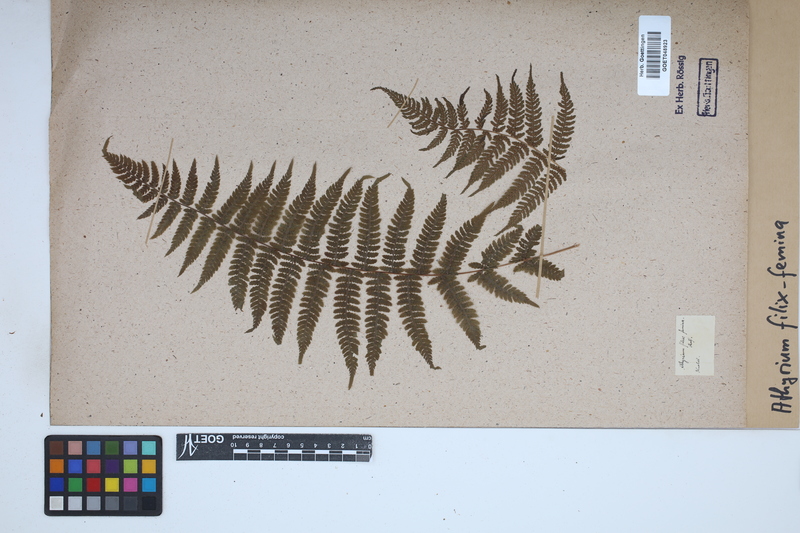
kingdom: Plantae
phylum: Tracheophyta
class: Polypodiopsida
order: Polypodiales
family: Athyriaceae
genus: Athyrium
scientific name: Athyrium filix-femina
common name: Lady fern
